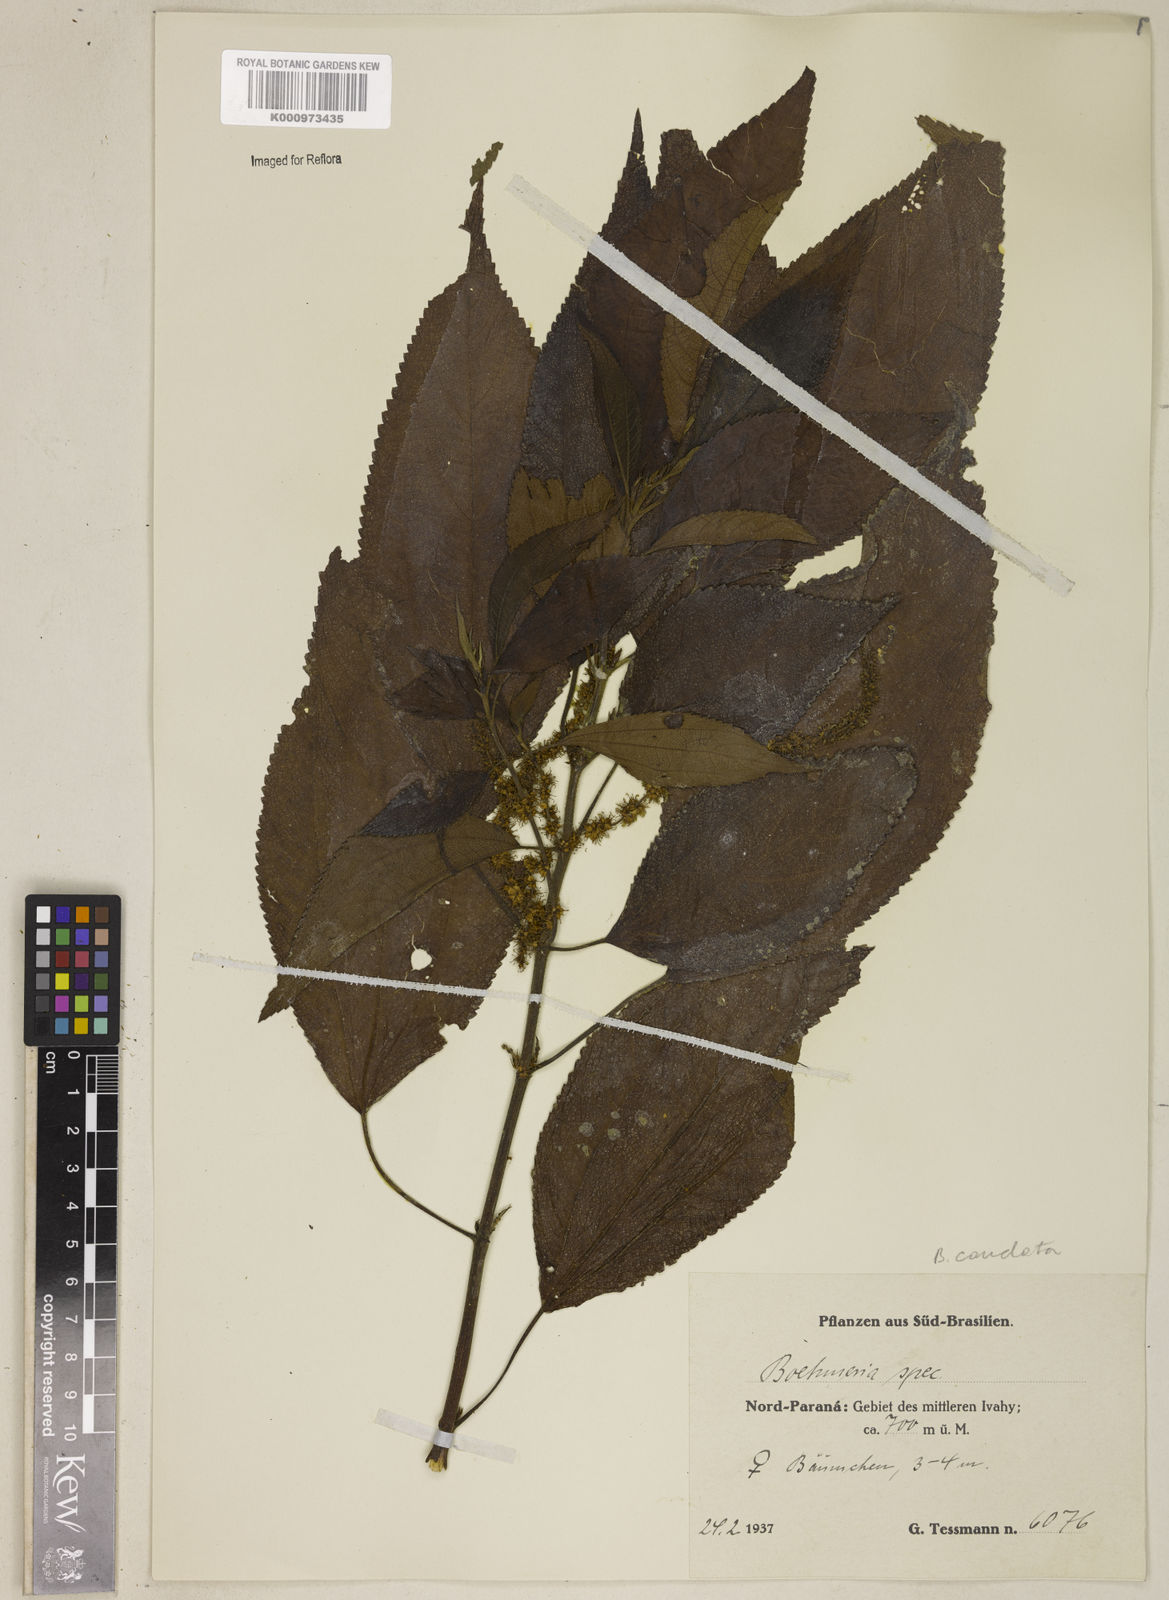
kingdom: Plantae
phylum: Tracheophyta
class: Magnoliopsida
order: Rosales
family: Urticaceae
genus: Boehmeria
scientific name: Boehmeria caudata
